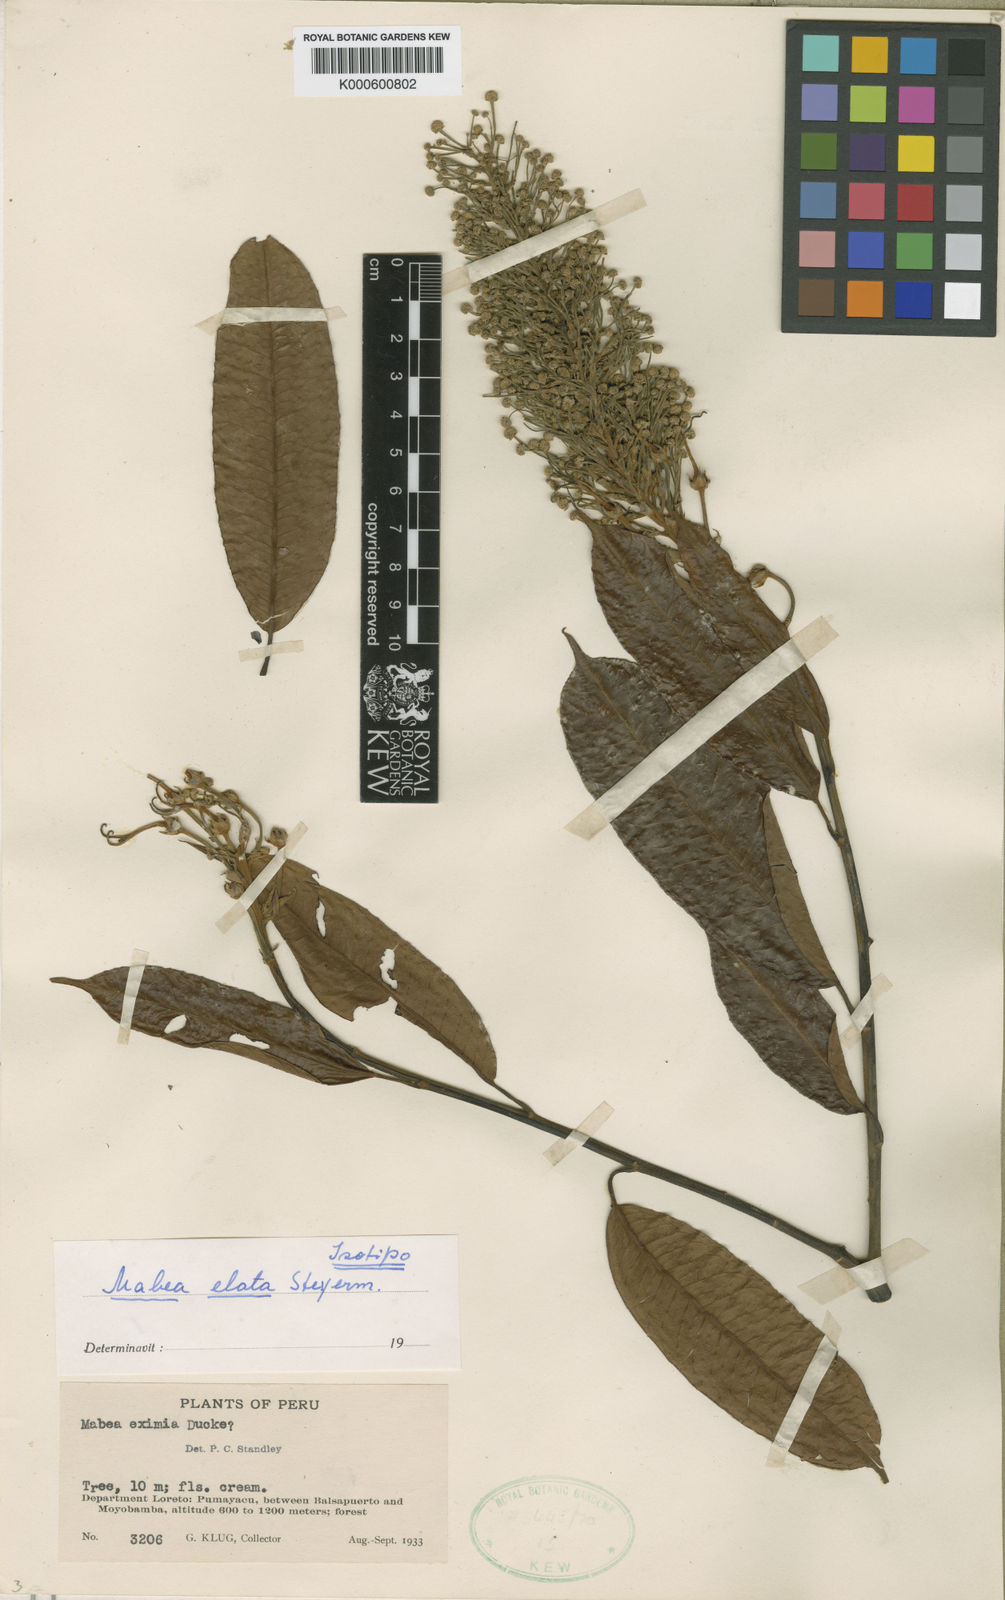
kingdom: Plantae
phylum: Tracheophyta
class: Magnoliopsida
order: Malpighiales
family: Euphorbiaceae
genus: Mabea
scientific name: Mabea elata
